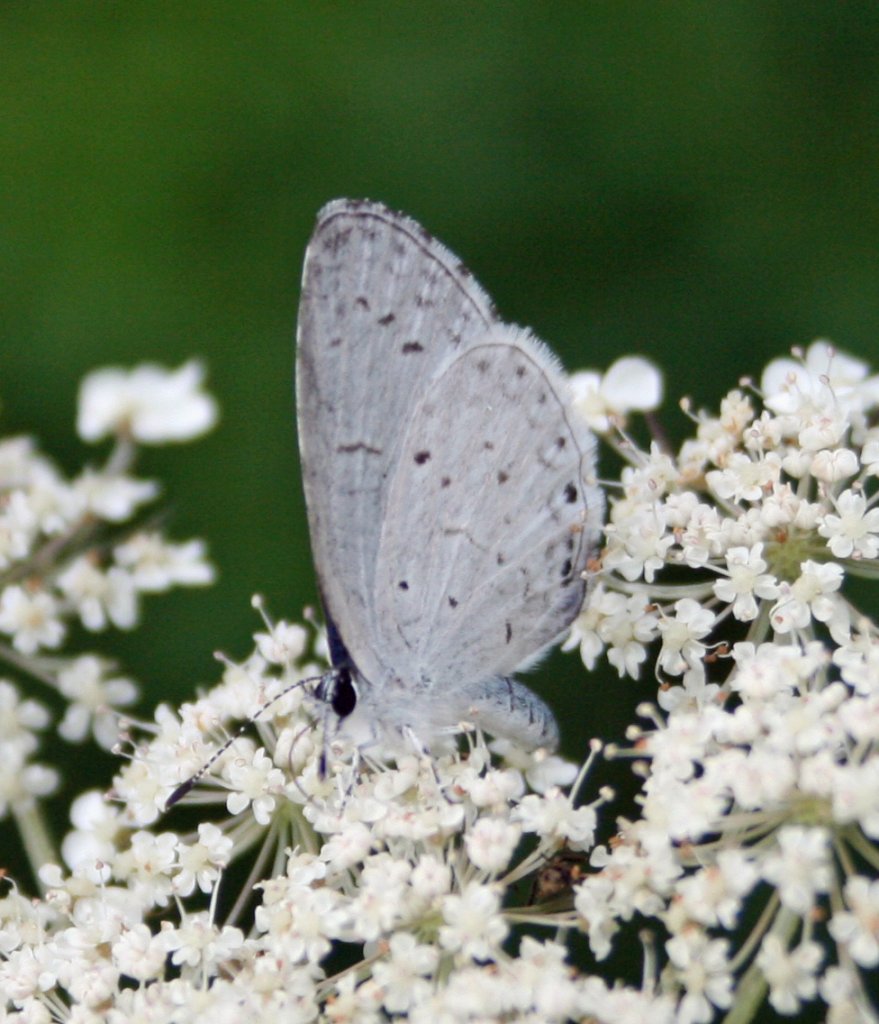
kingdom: Animalia
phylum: Arthropoda
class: Insecta
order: Lepidoptera
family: Lycaenidae
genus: Celastrina
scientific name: Celastrina
